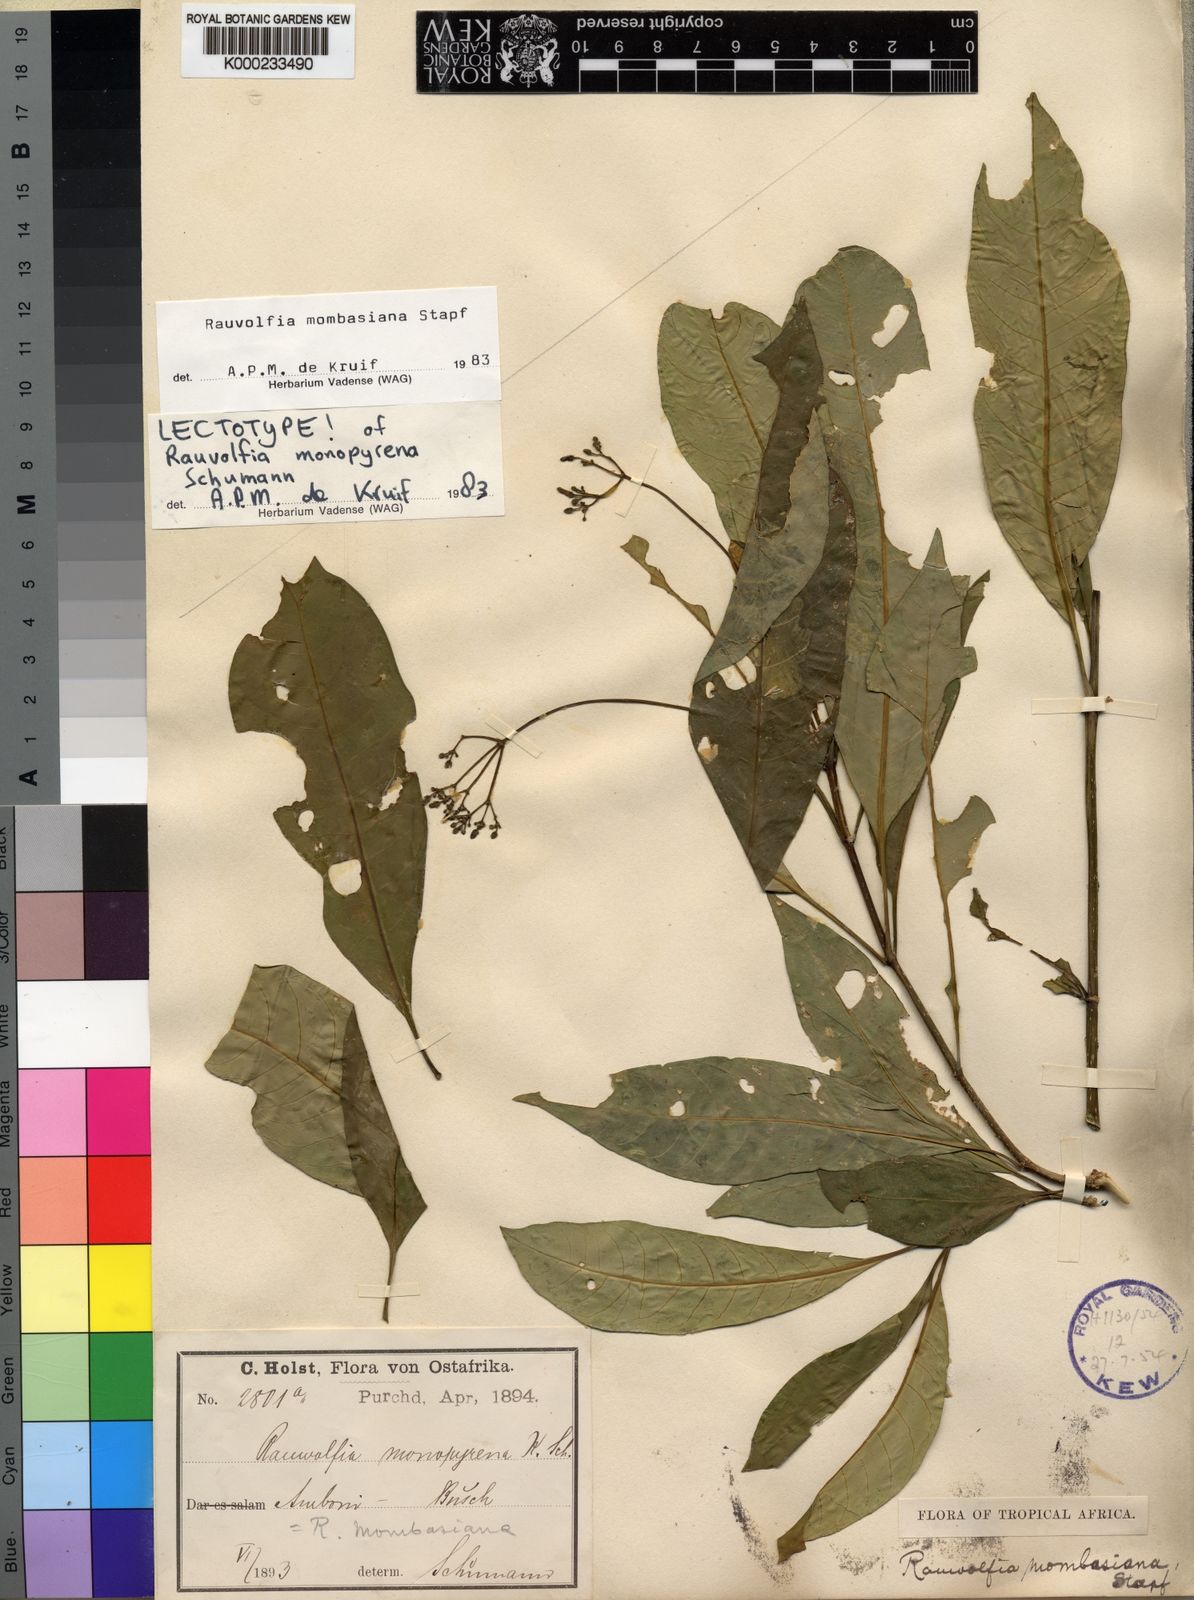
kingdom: Plantae
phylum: Tracheophyta
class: Magnoliopsida
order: Gentianales
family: Apocynaceae
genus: Rauvolfia
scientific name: Rauvolfia mombasiana
